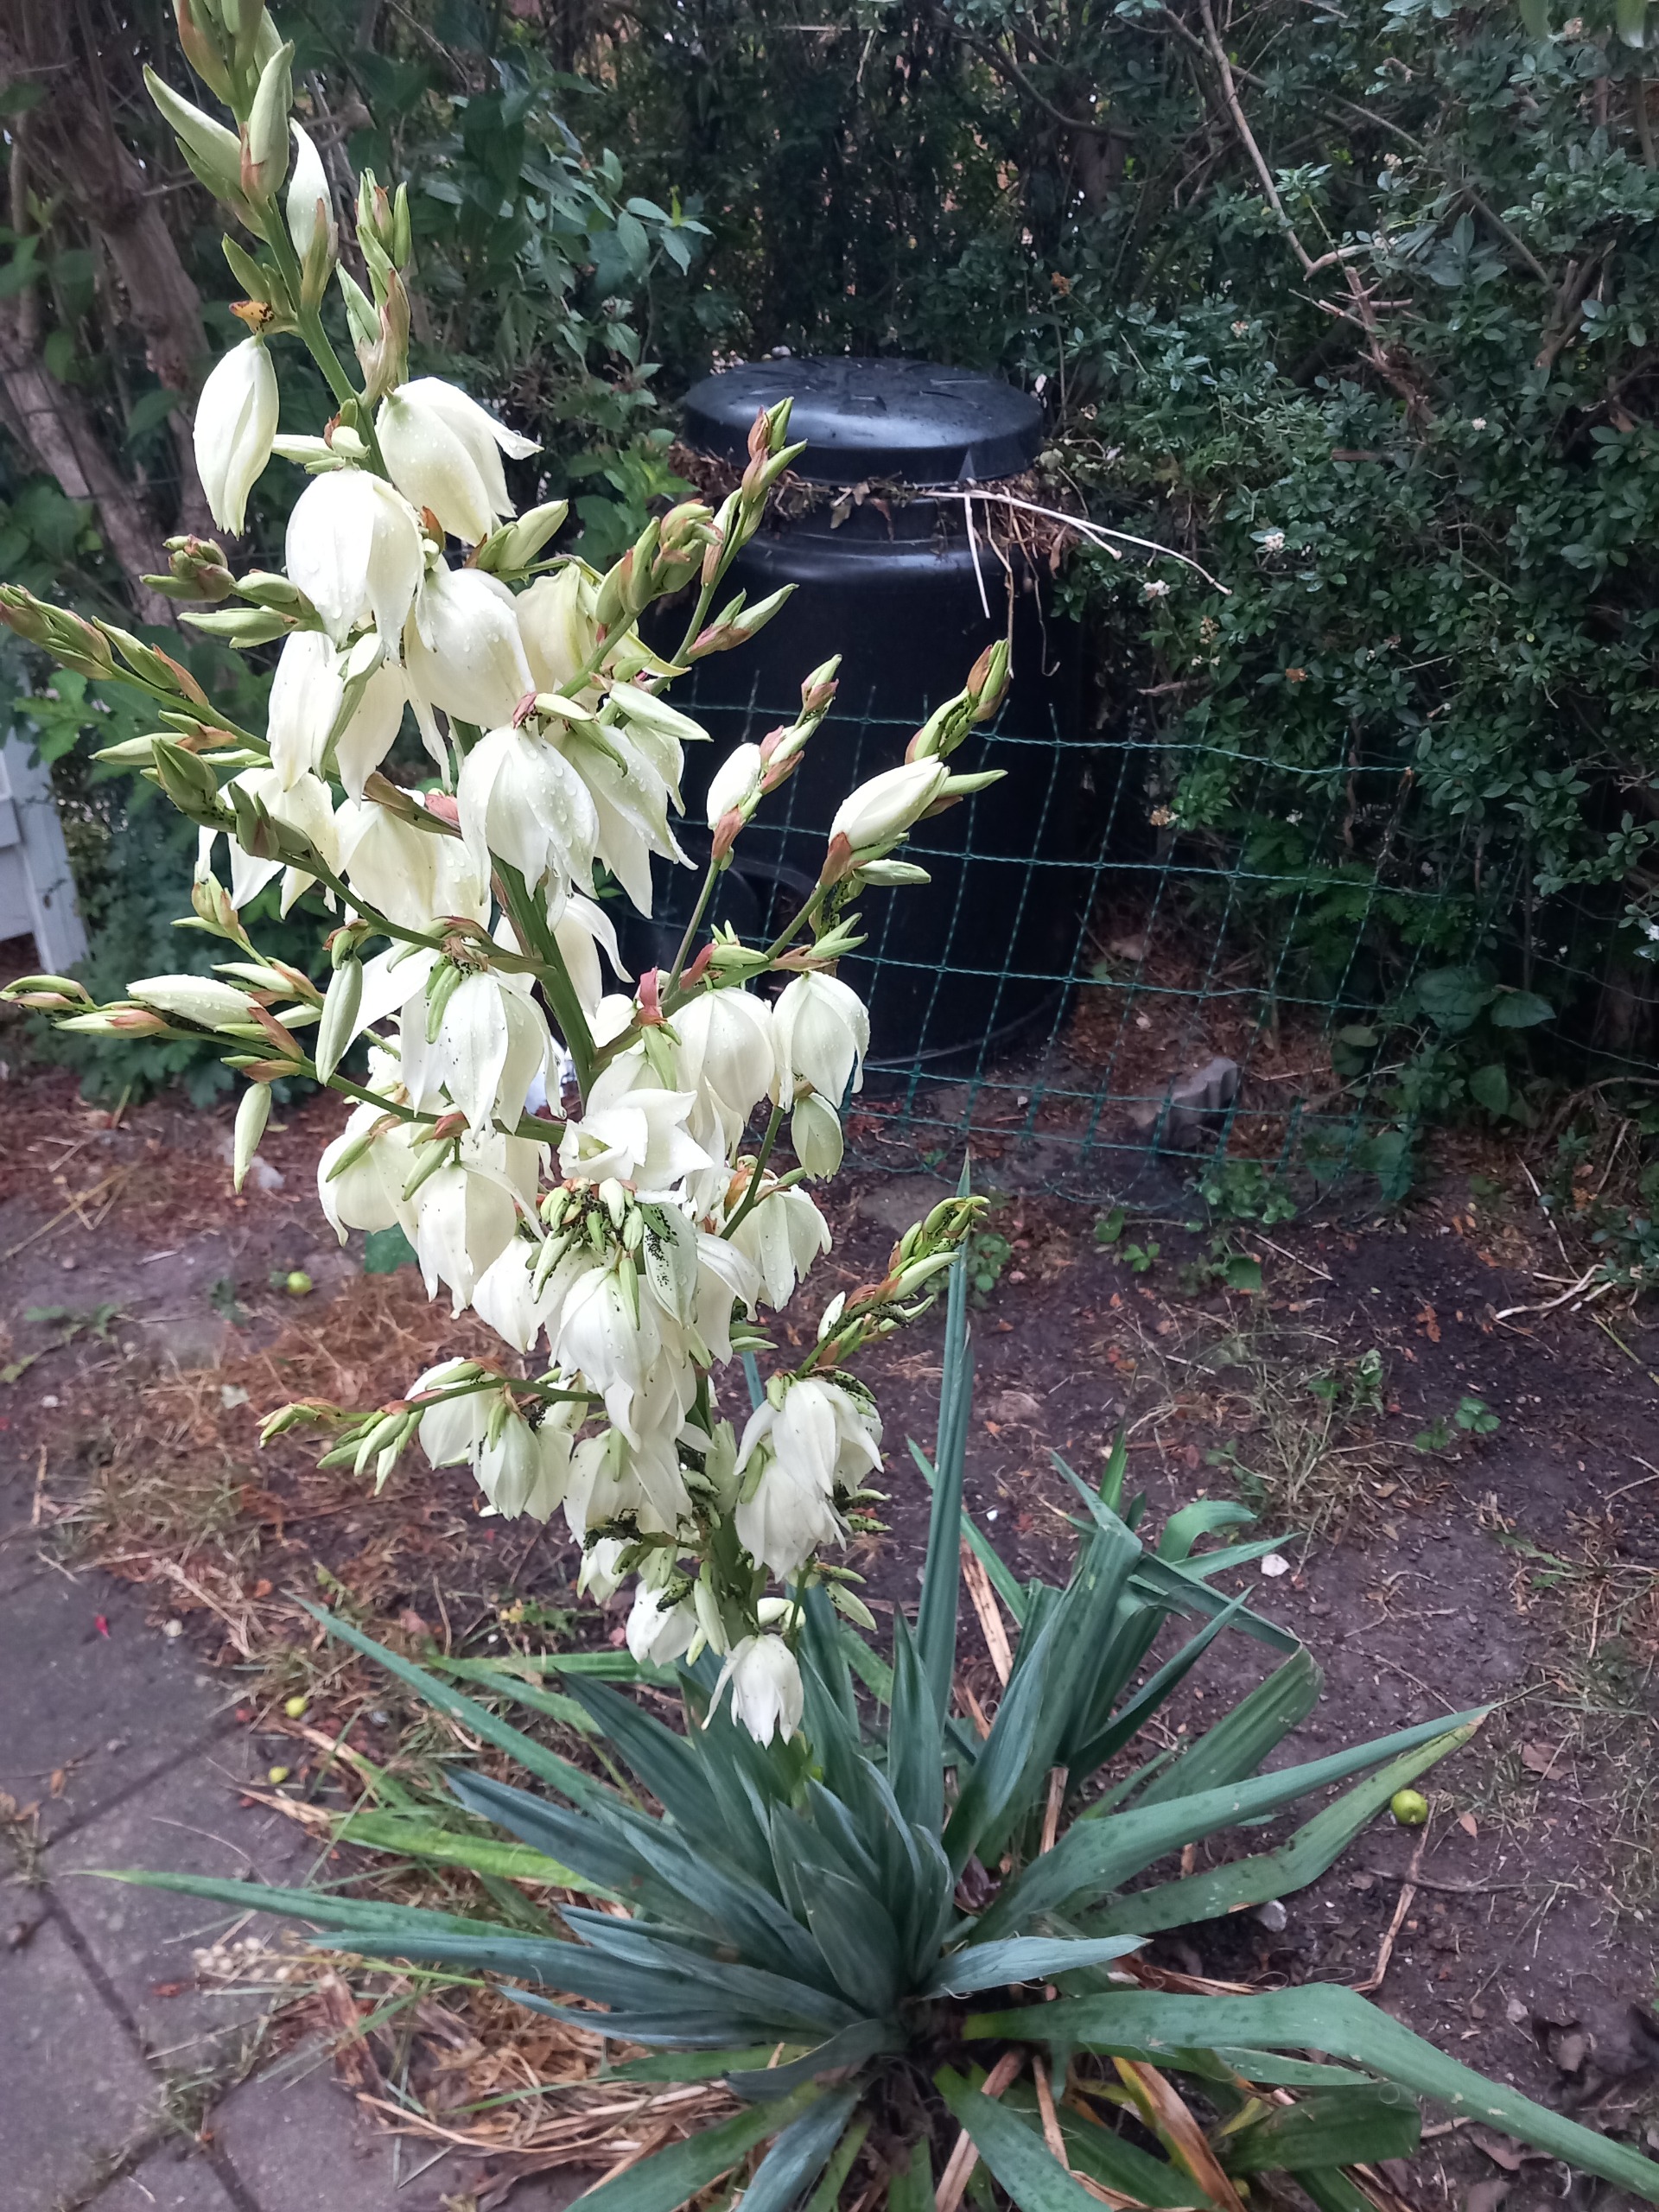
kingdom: Plantae
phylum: Tracheophyta
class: Liliopsida
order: Asparagales
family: Asparagaceae
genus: Yucca
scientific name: Yucca filamentosa
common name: Trævlet palmelilje
